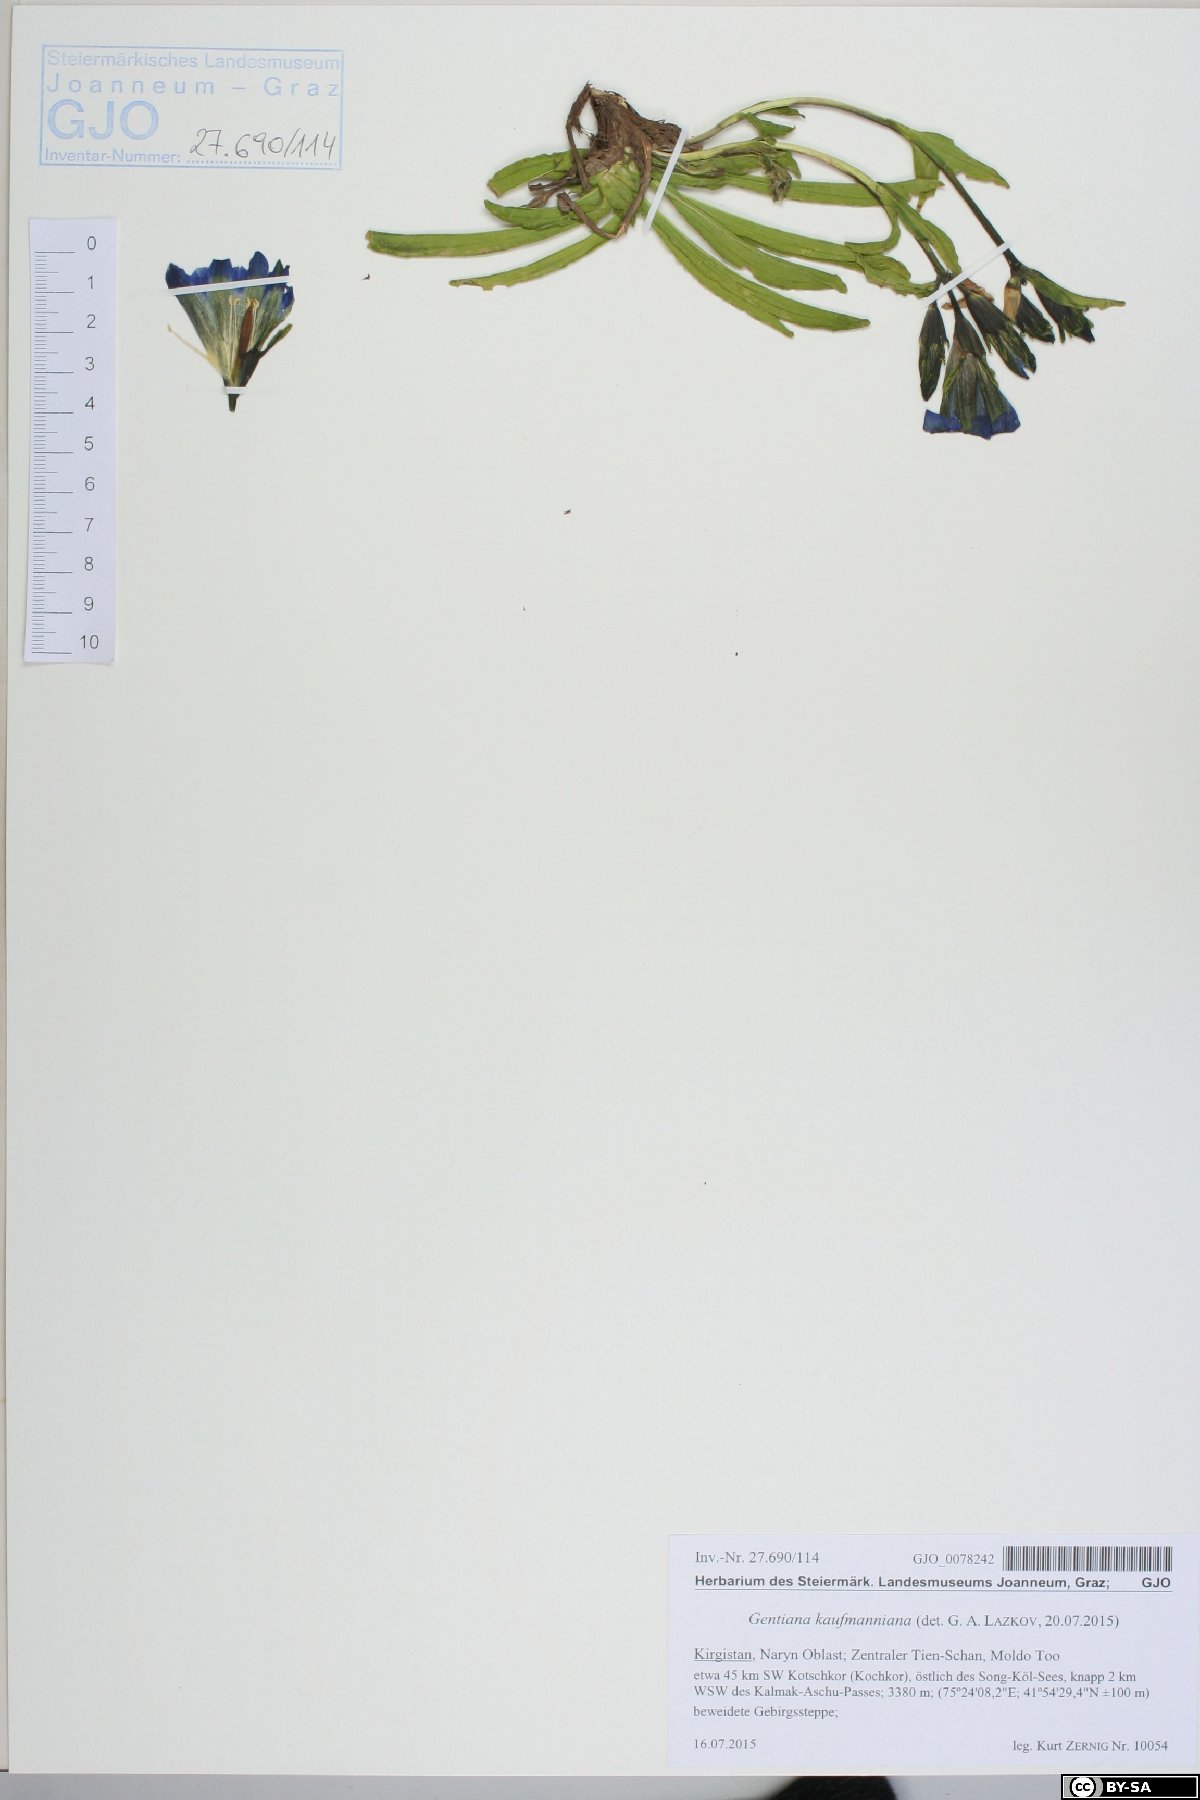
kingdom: Plantae
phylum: Tracheophyta
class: Magnoliopsida
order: Gentianales
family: Gentianaceae
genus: Gentiana
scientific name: Gentiana kauffmanniana
